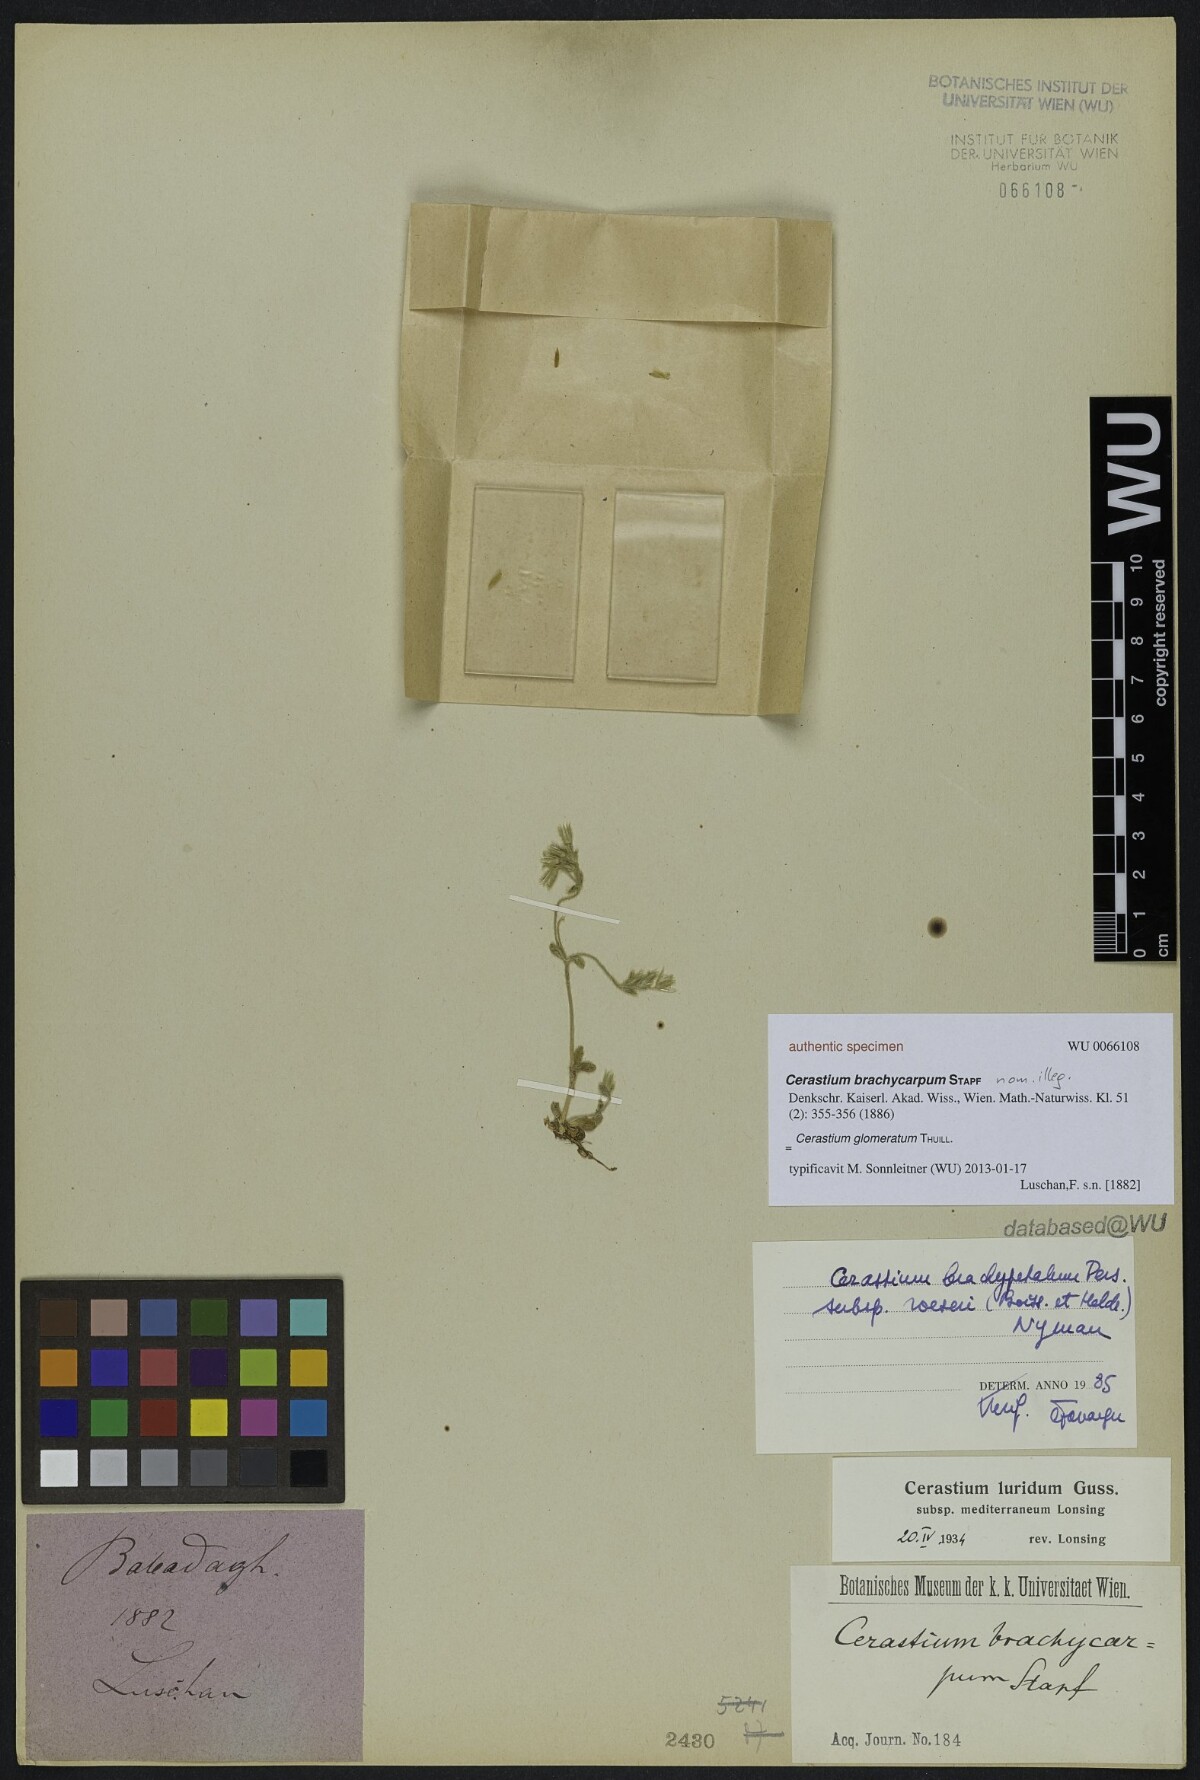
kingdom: Plantae
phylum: Tracheophyta
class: Magnoliopsida
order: Caryophyllales
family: Caryophyllaceae
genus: Cerastium
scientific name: Cerastium glomeratum
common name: Sticky chickweed
